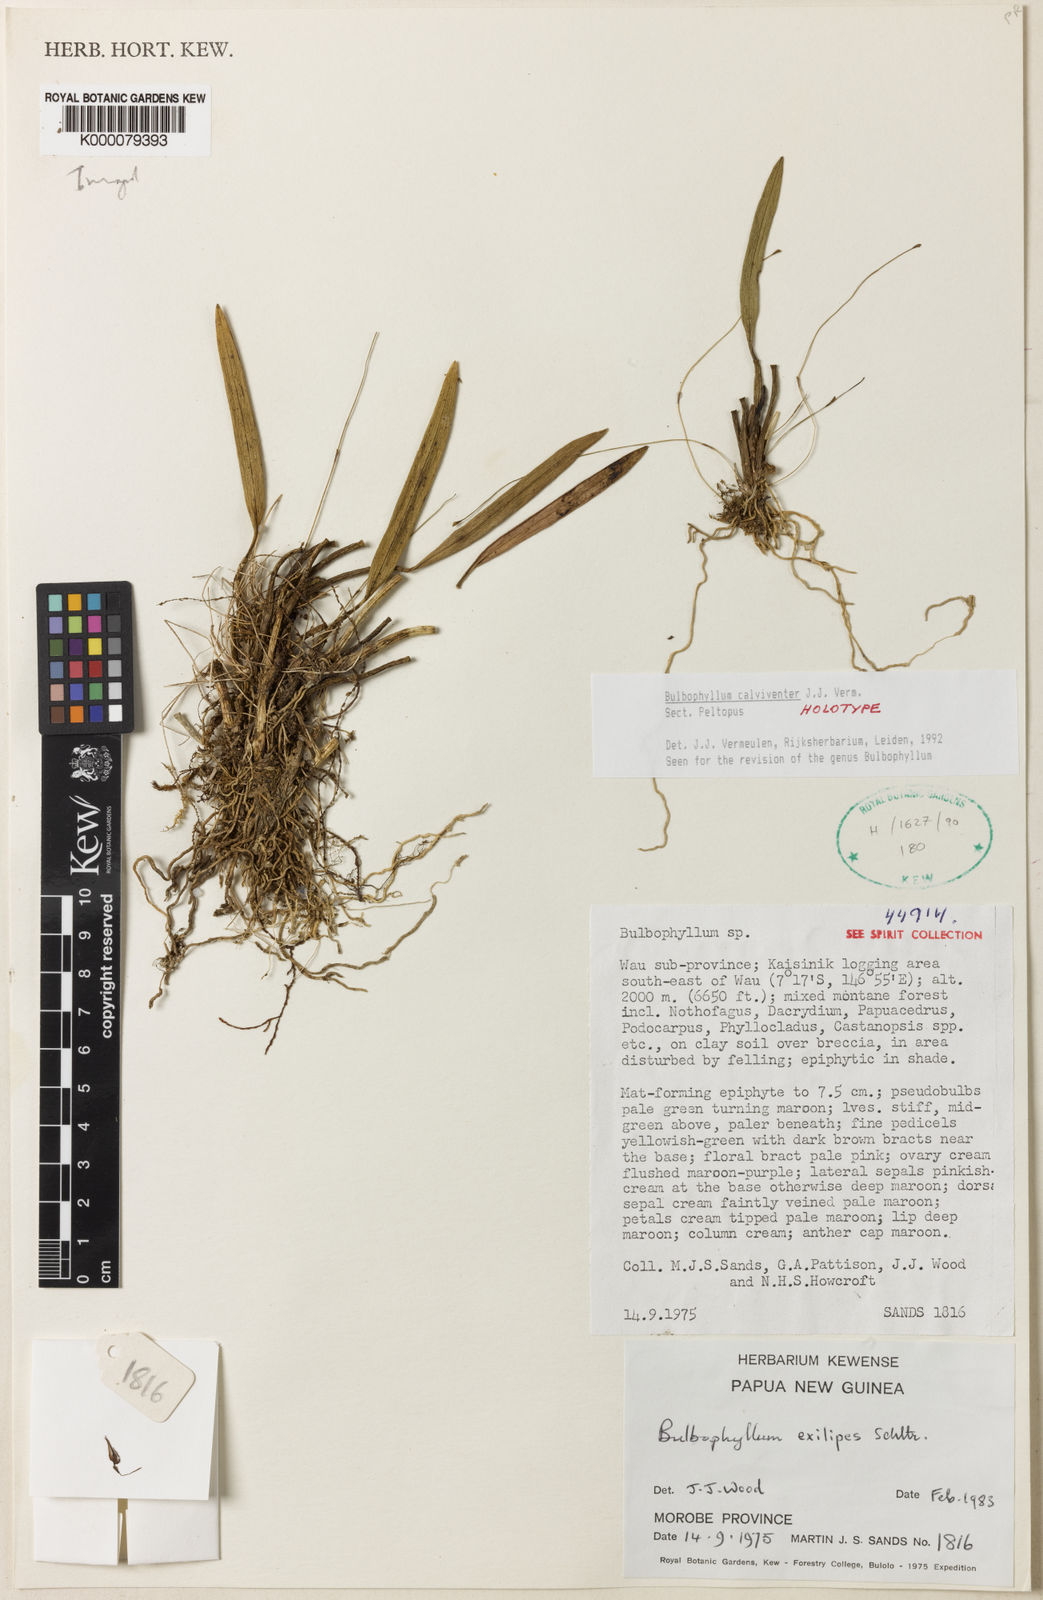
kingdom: Plantae
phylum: Tracheophyta
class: Liliopsida
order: Asparagales
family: Orchidaceae
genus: Bulbophyllum
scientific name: Bulbophyllum
